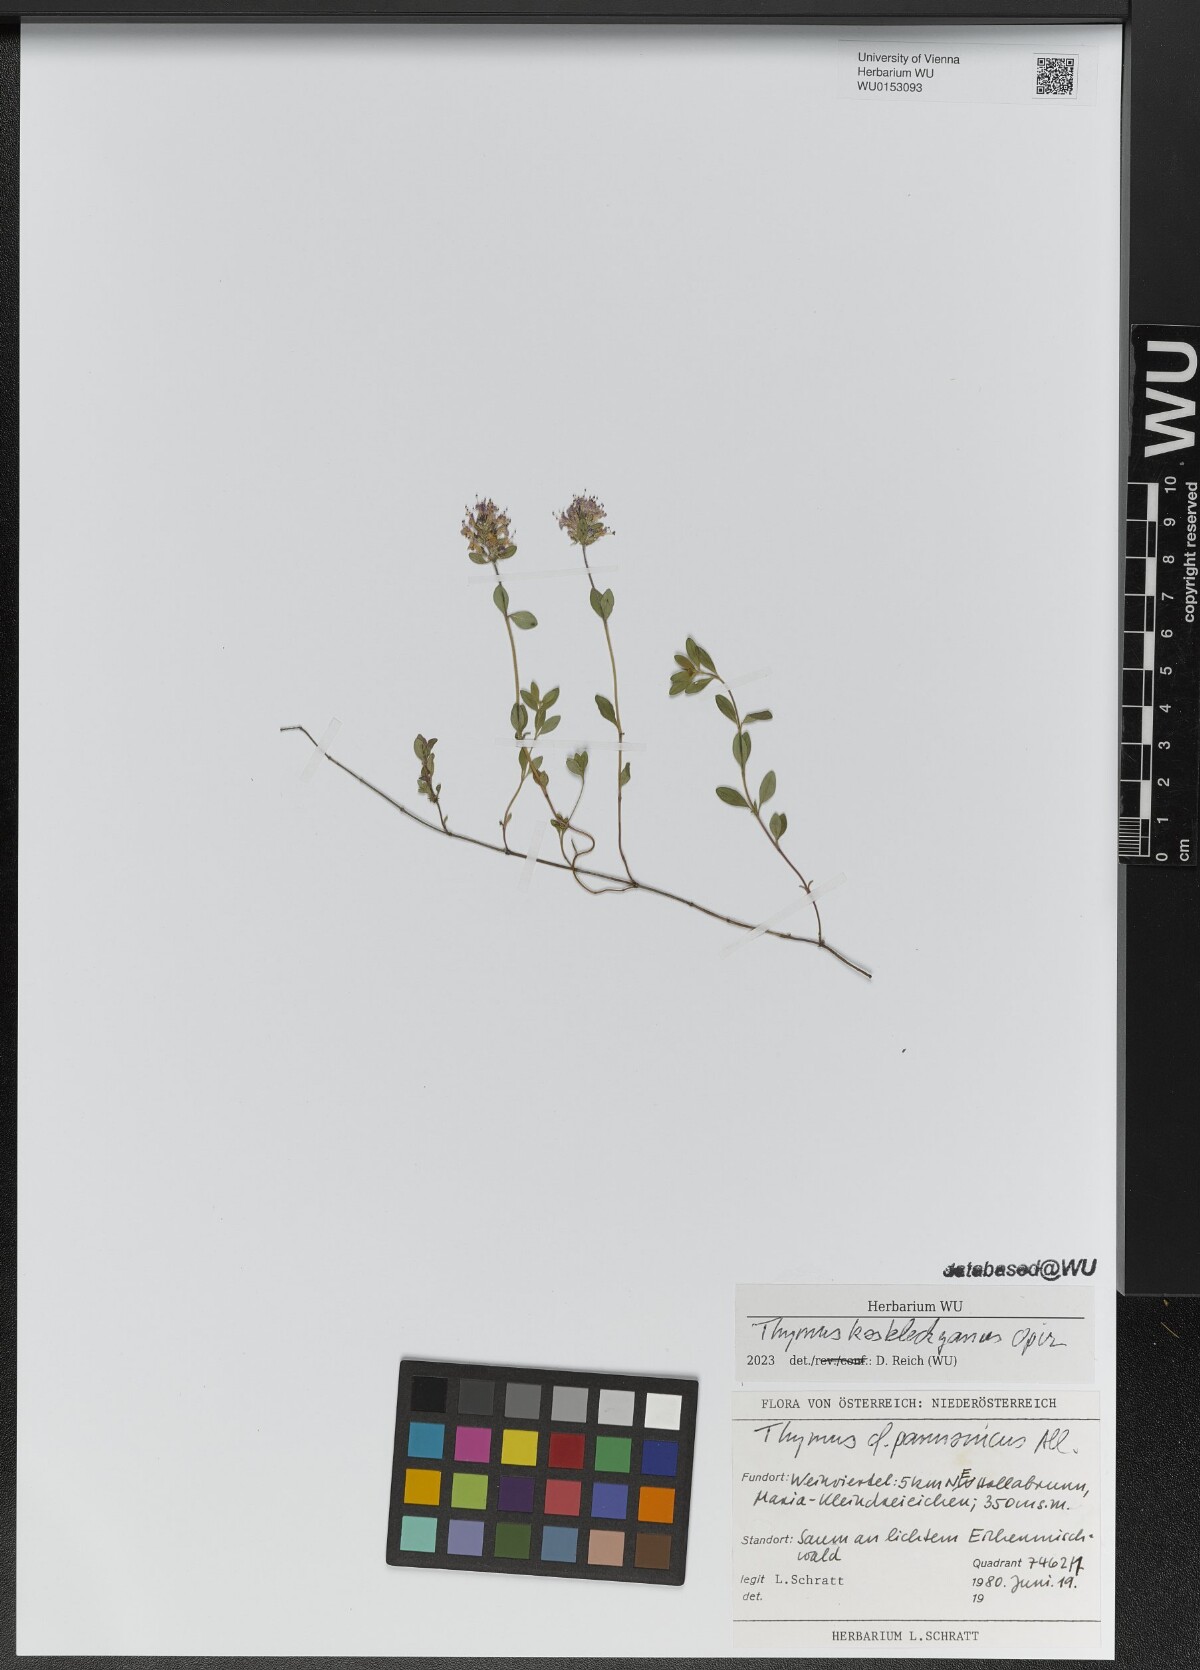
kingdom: Plantae
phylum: Tracheophyta
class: Magnoliopsida
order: Lamiales
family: Lamiaceae
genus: Thymus
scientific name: Thymus kosteleckyanus
